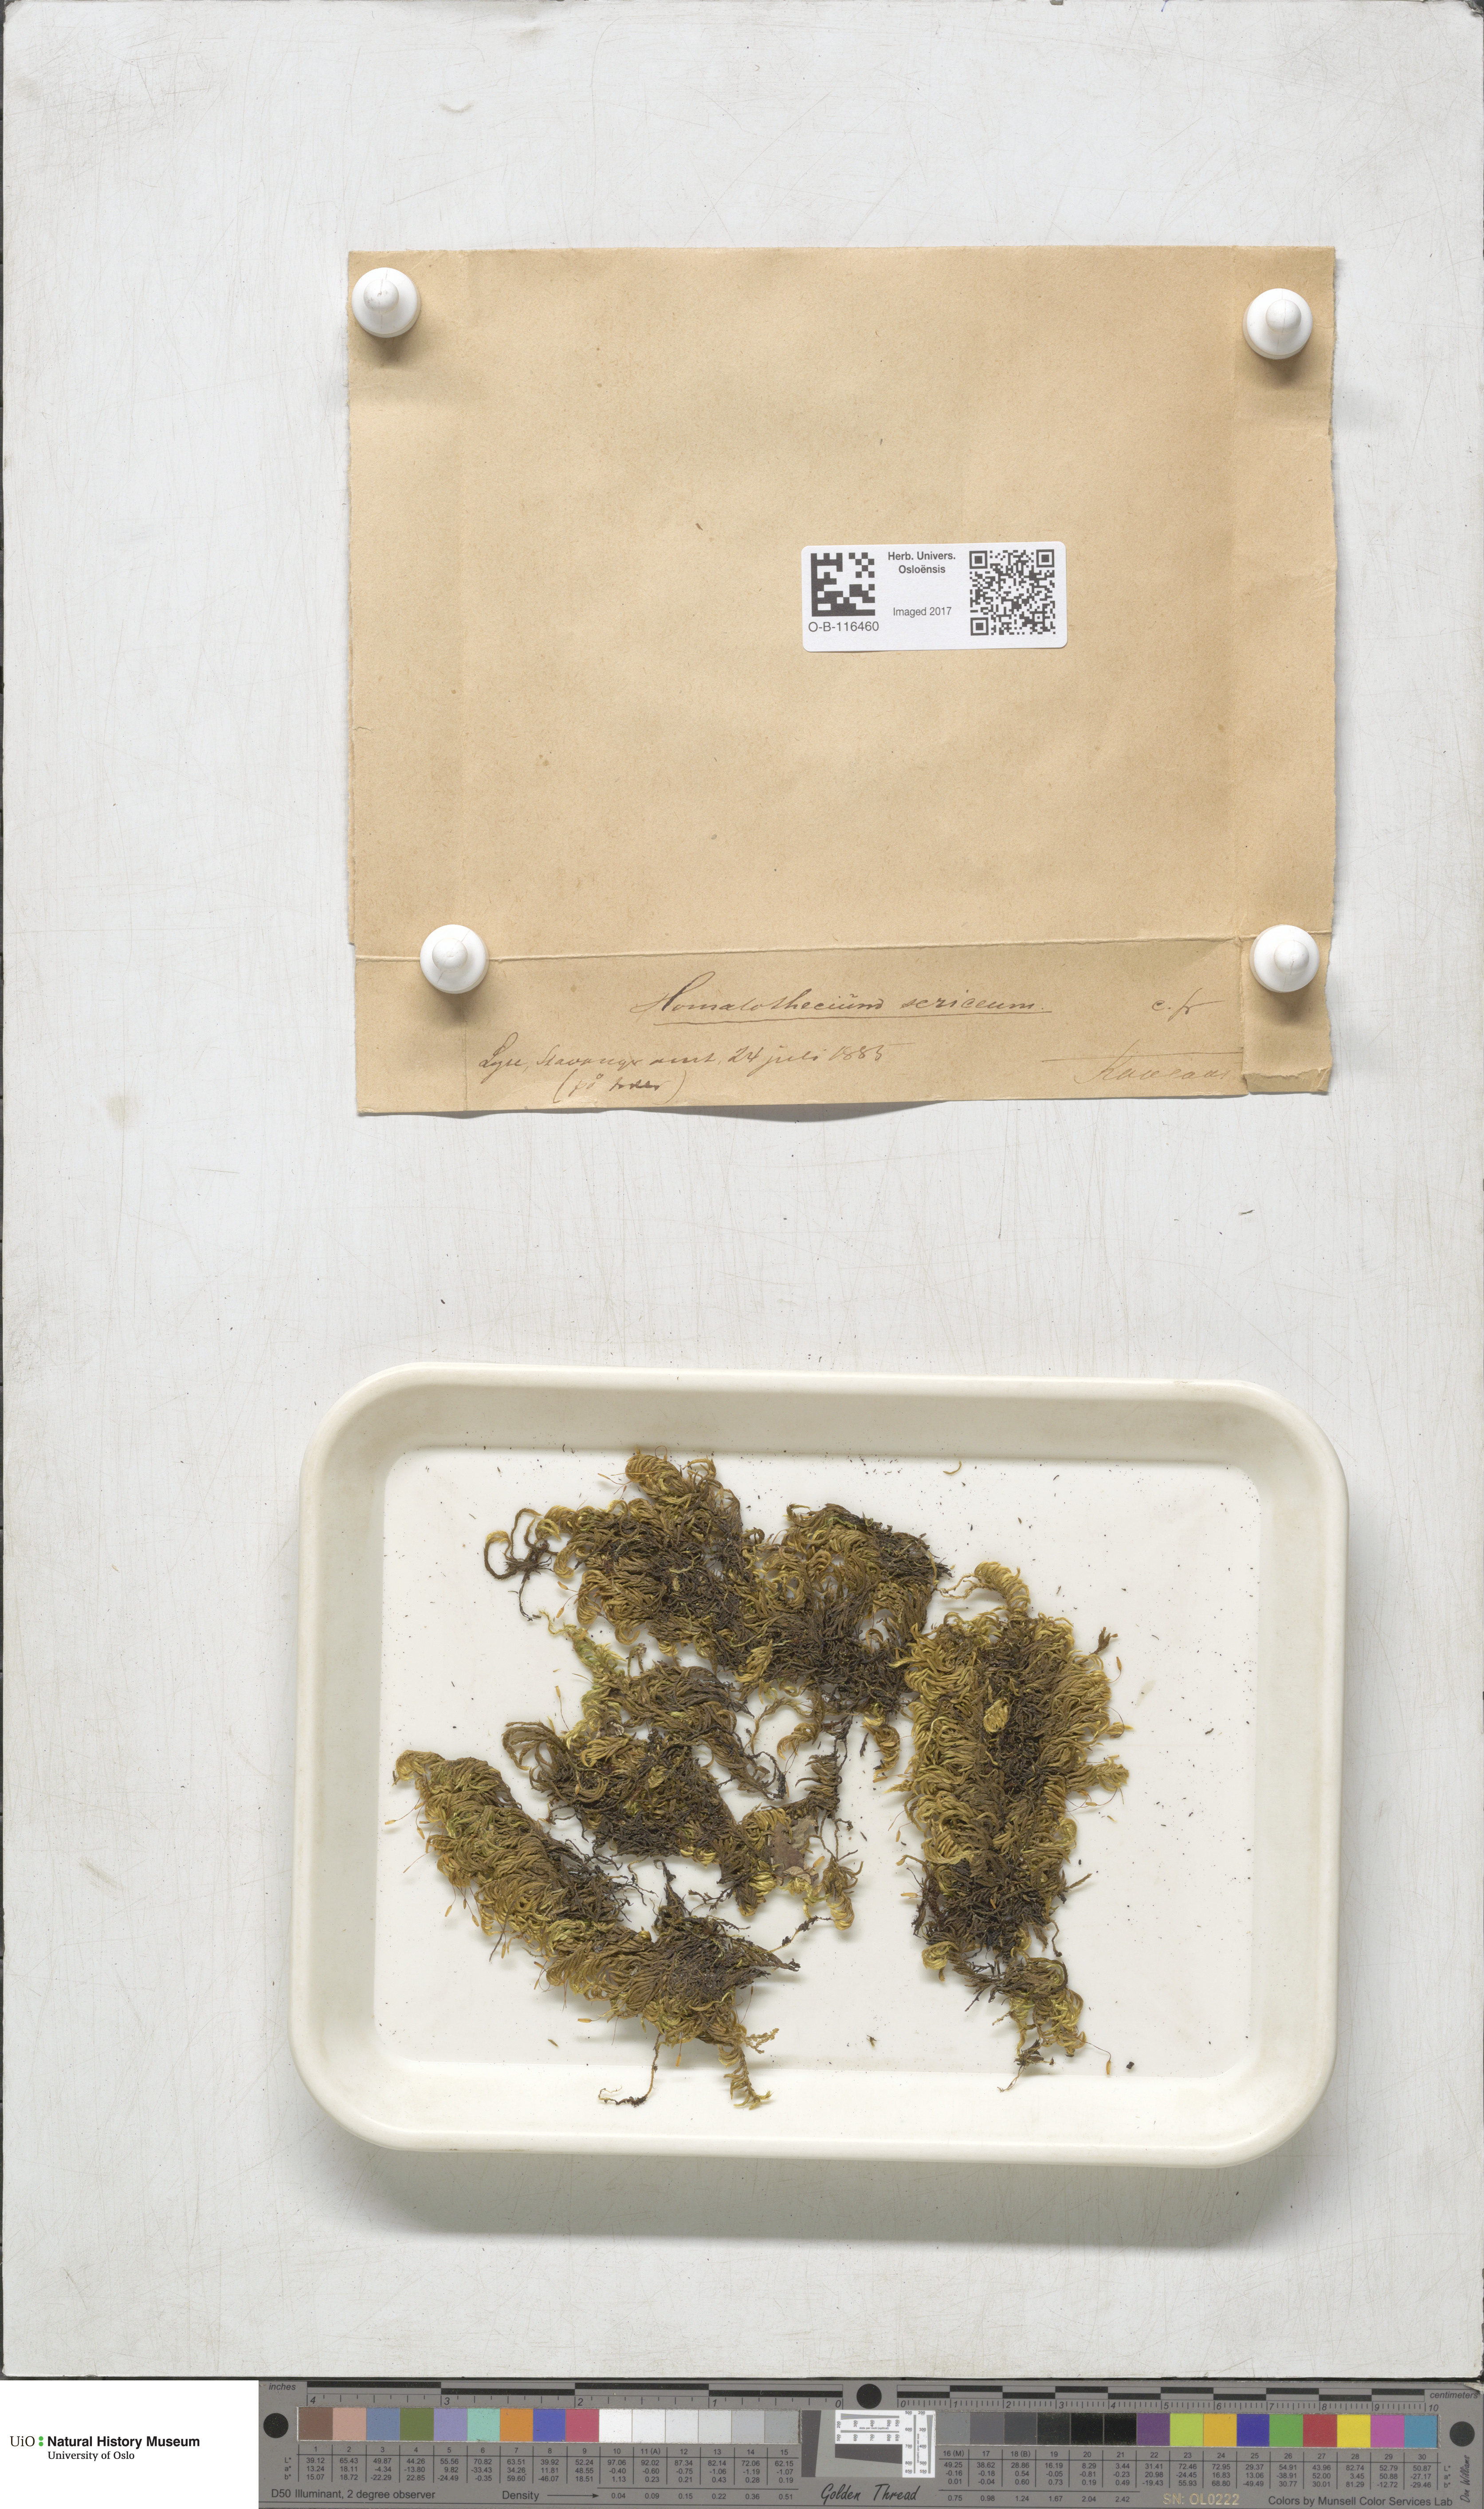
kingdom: Plantae
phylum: Bryophyta
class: Bryopsida
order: Hypnales
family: Brachytheciaceae
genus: Homalothecium
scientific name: Homalothecium sericeum
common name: Silky wall feather-moss
